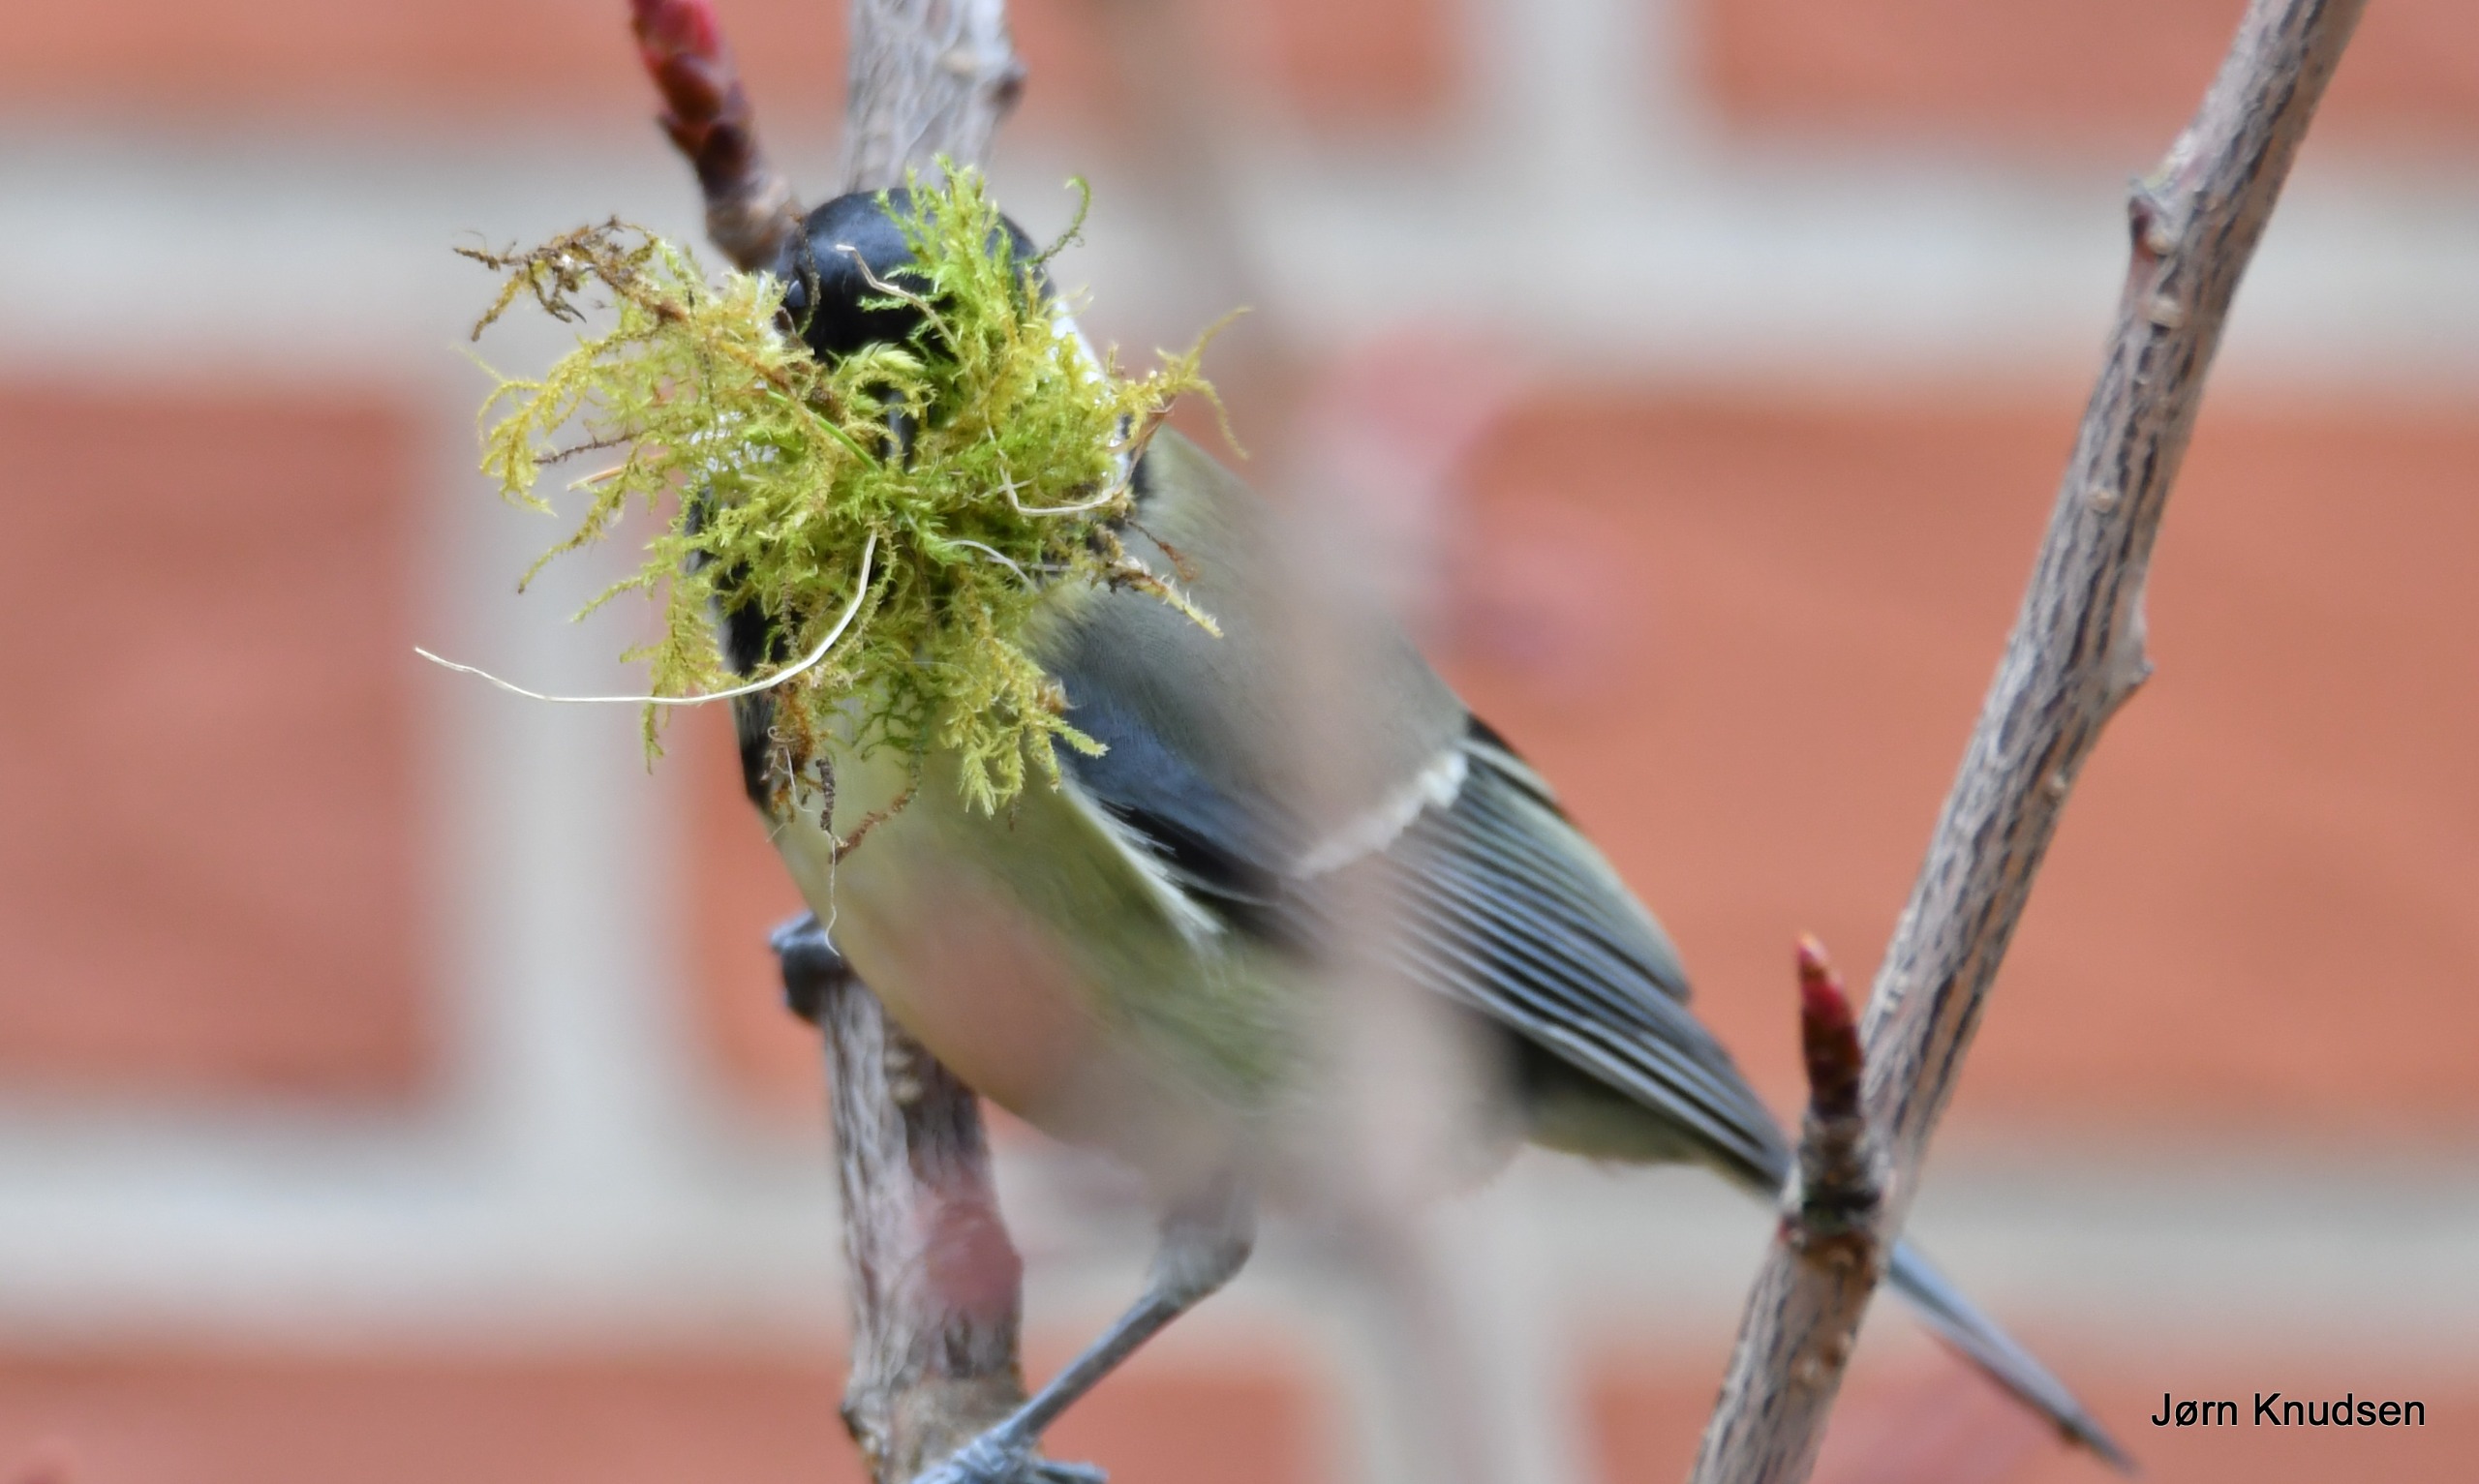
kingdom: Animalia
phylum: Chordata
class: Aves
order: Passeriformes
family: Paridae
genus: Parus
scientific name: Parus major
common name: Musvit
